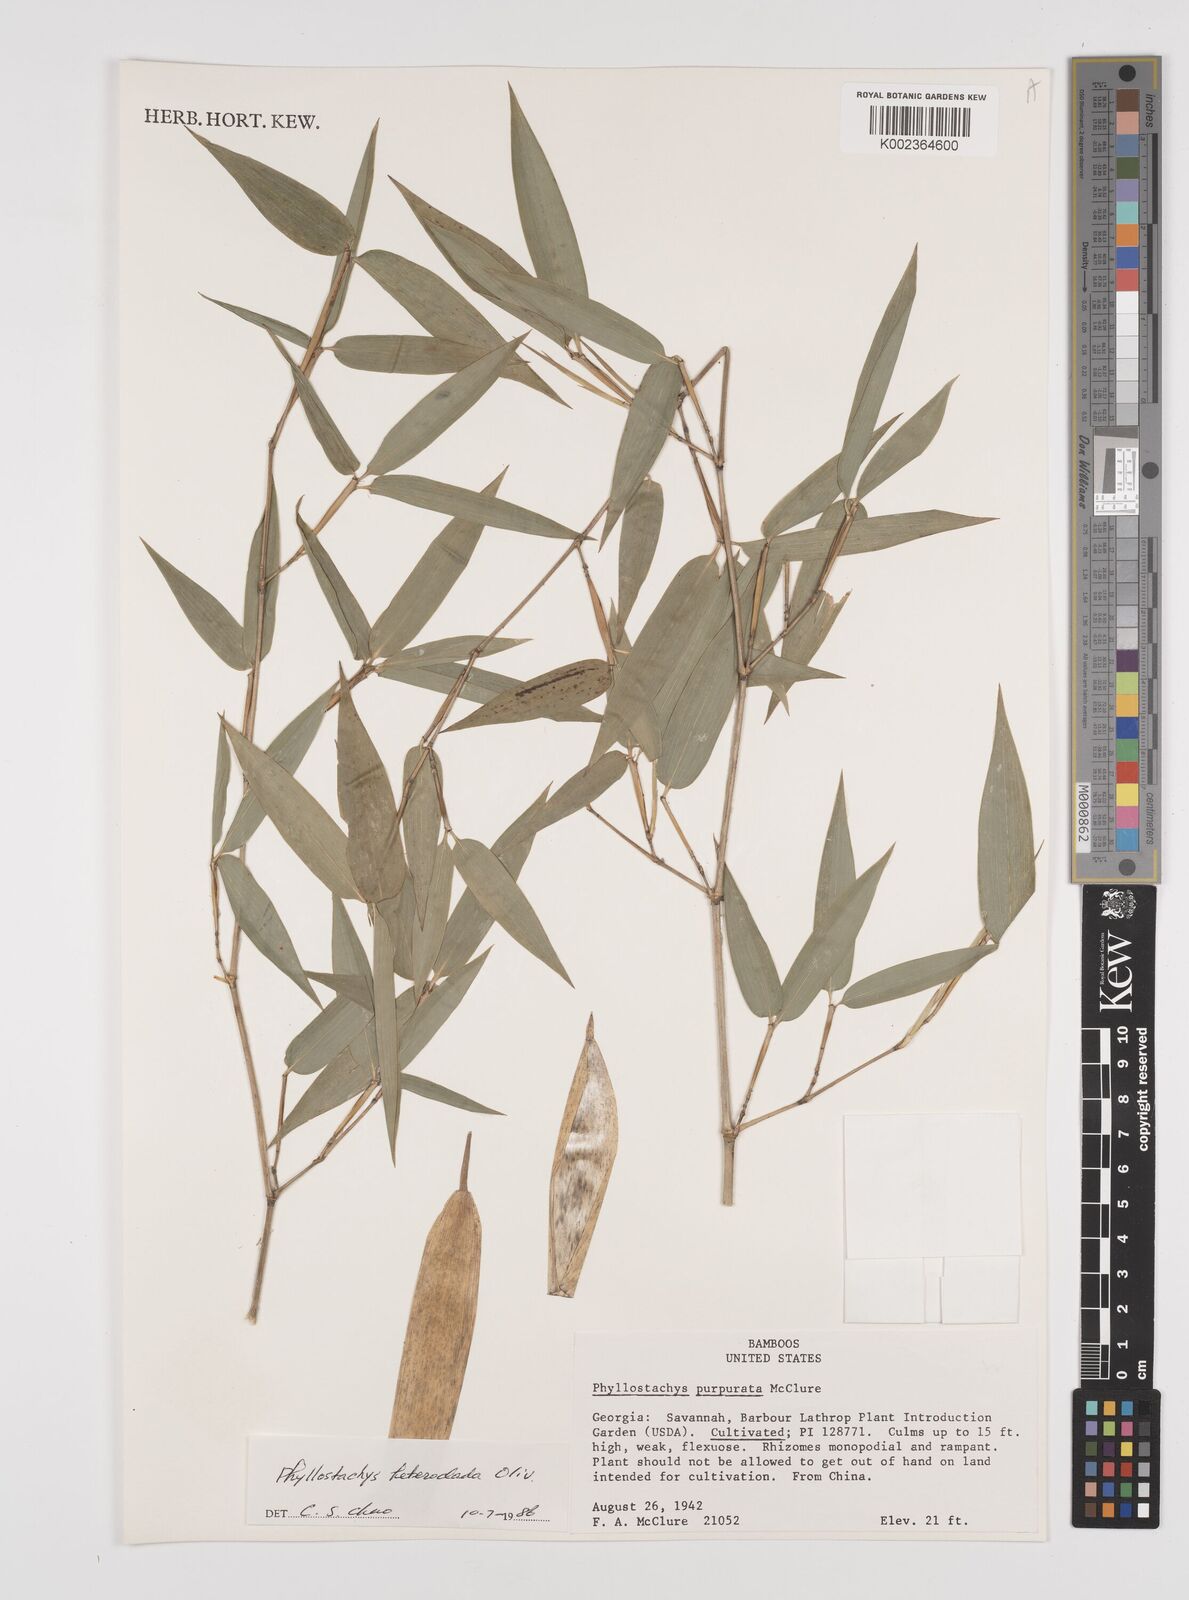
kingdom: Plantae
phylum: Tracheophyta
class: Liliopsida
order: Poales
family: Poaceae
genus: Phyllostachys
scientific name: Phyllostachys heteroclada
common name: Fishscale bamboo
